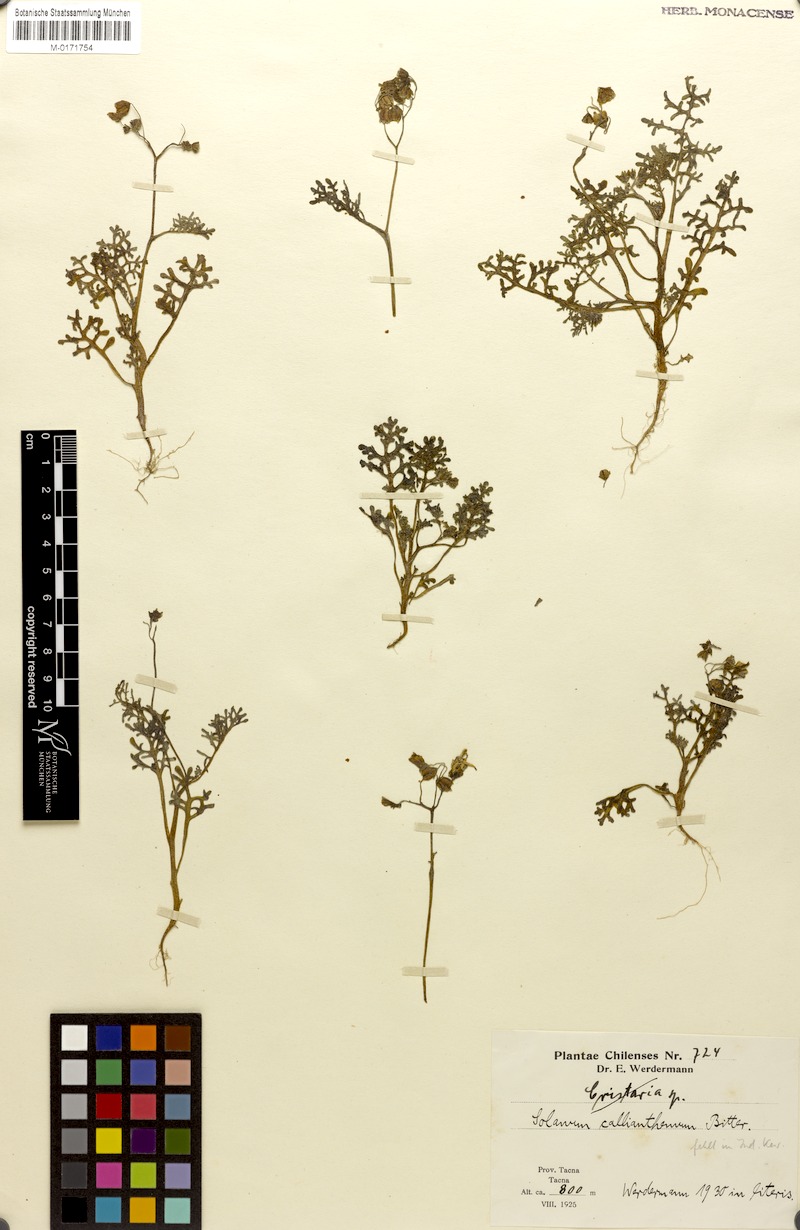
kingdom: Plantae
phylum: Tracheophyta
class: Magnoliopsida
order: Solanales
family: Solanaceae
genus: Solanum
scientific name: Solanum multifidum
